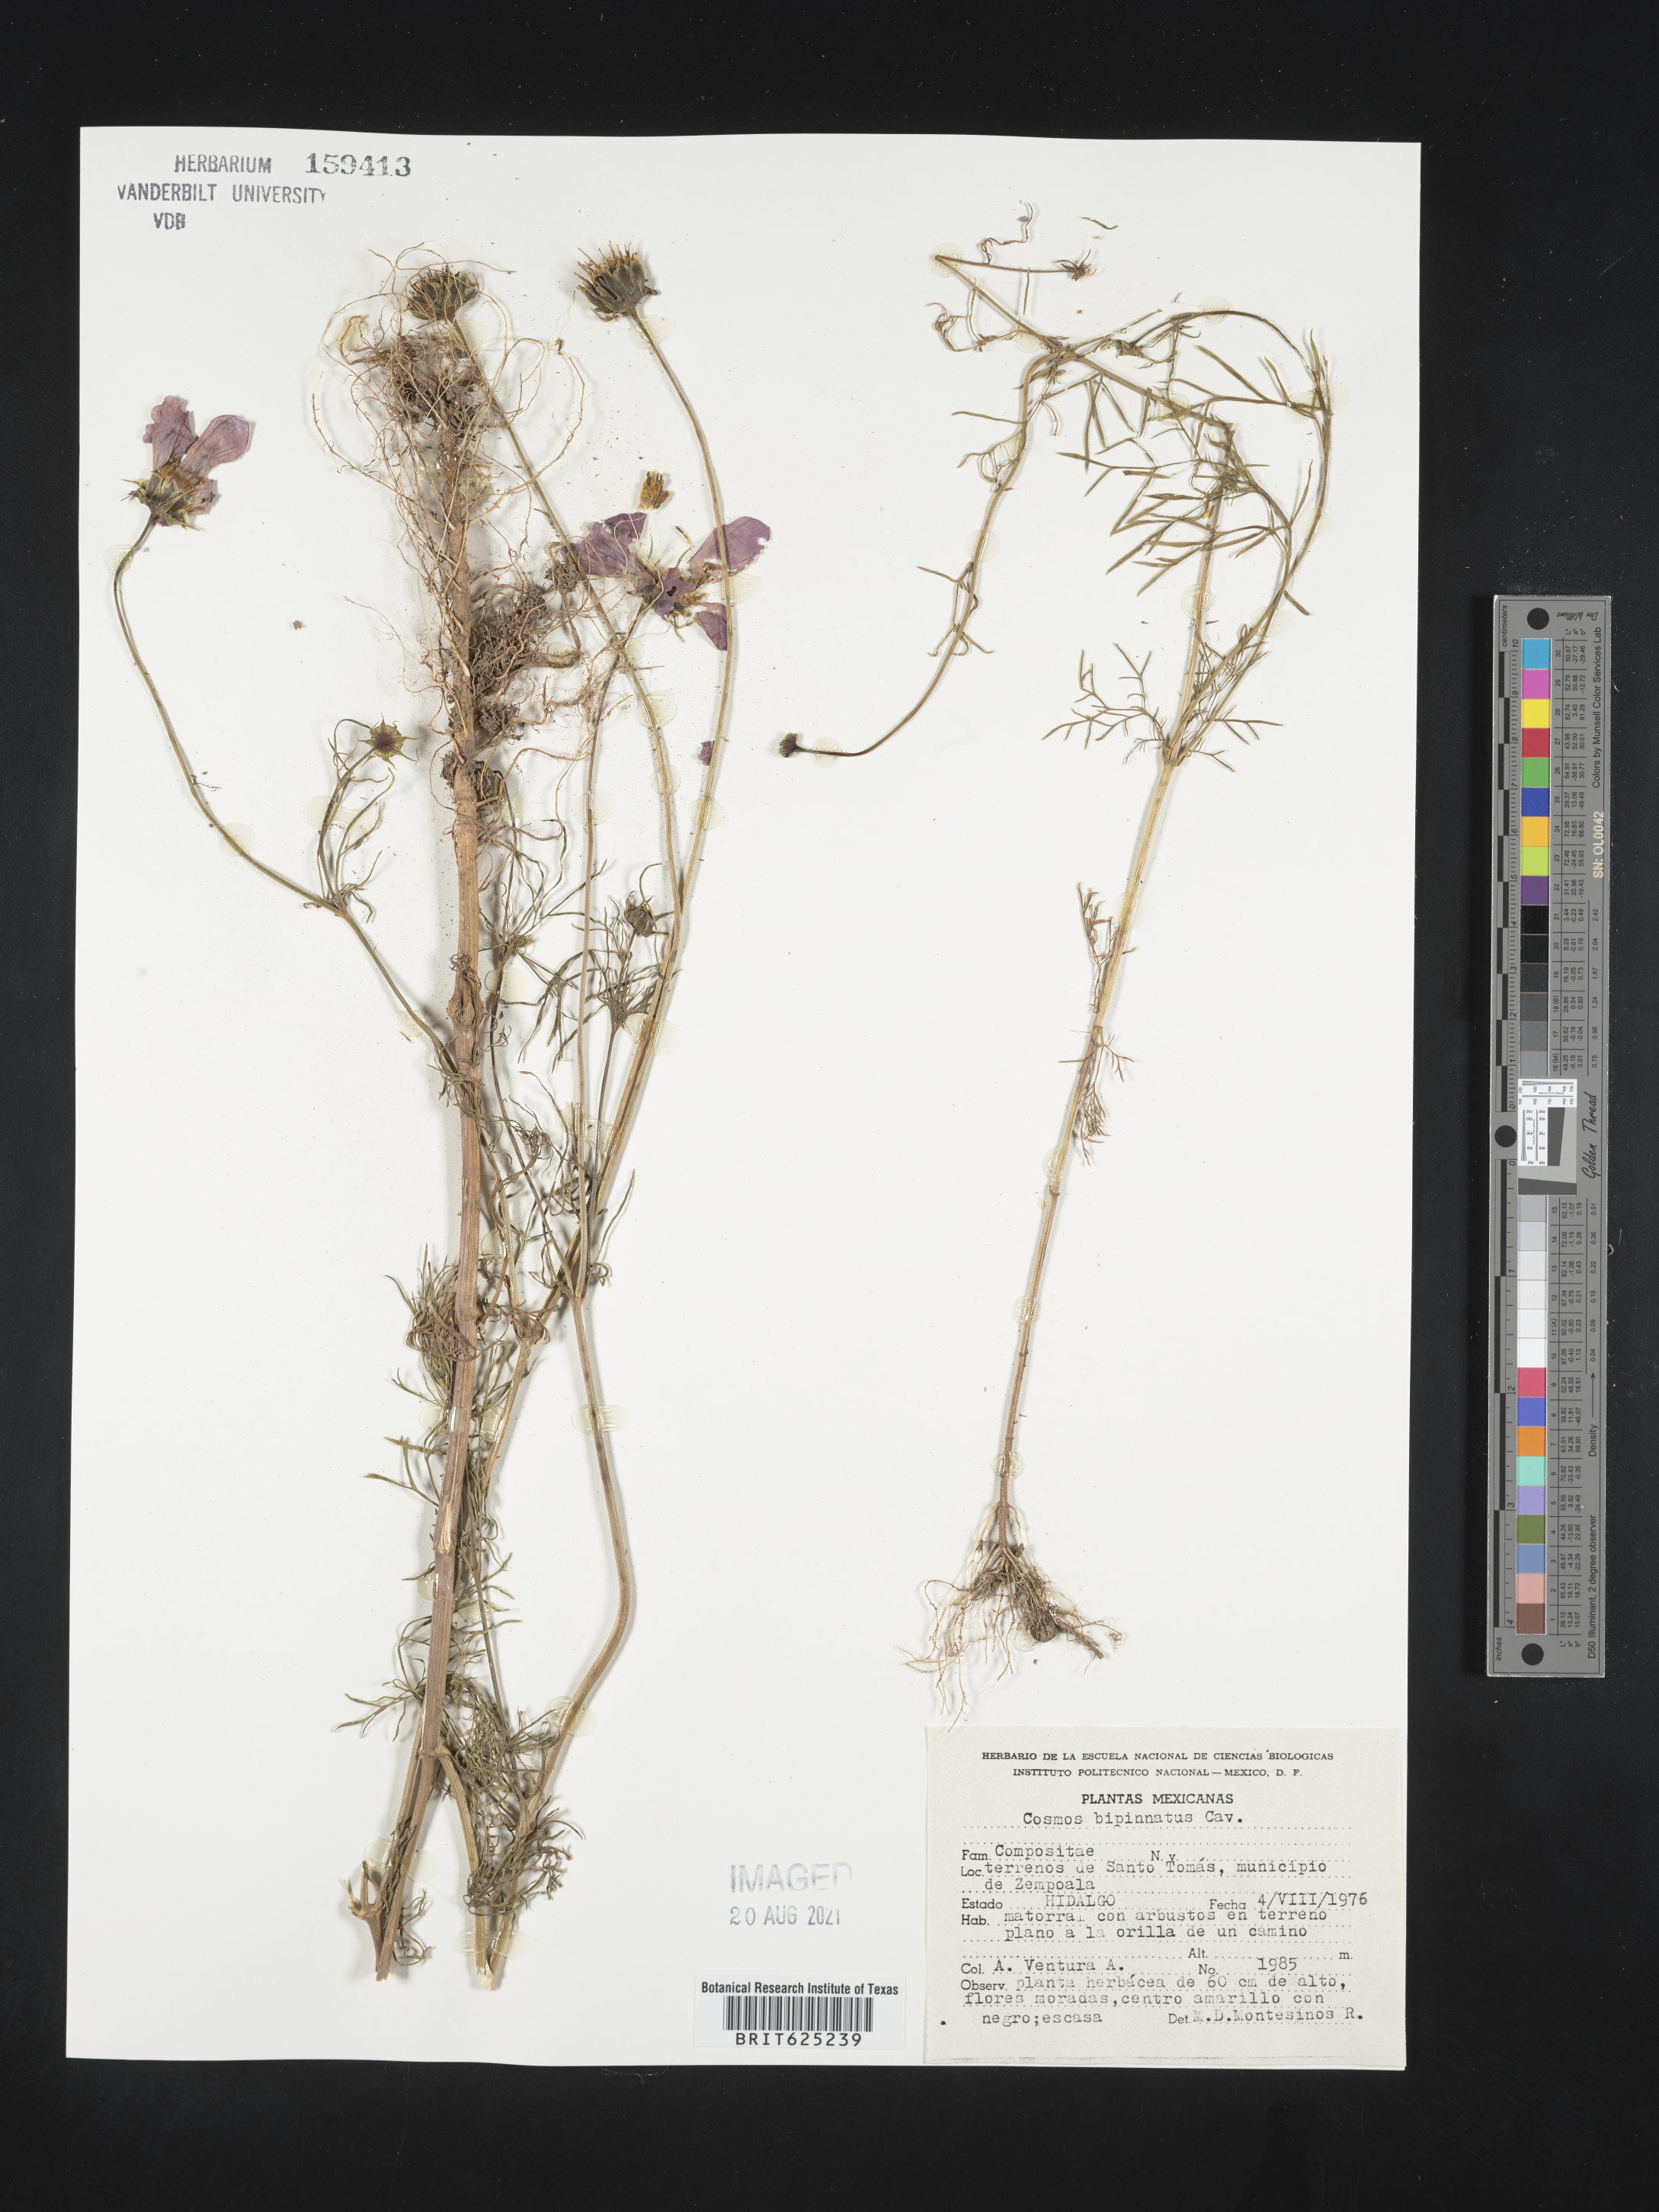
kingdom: Plantae
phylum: Tracheophyta
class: Magnoliopsida
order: Asterales
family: Asteraceae
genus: Cosmos
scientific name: Cosmos
